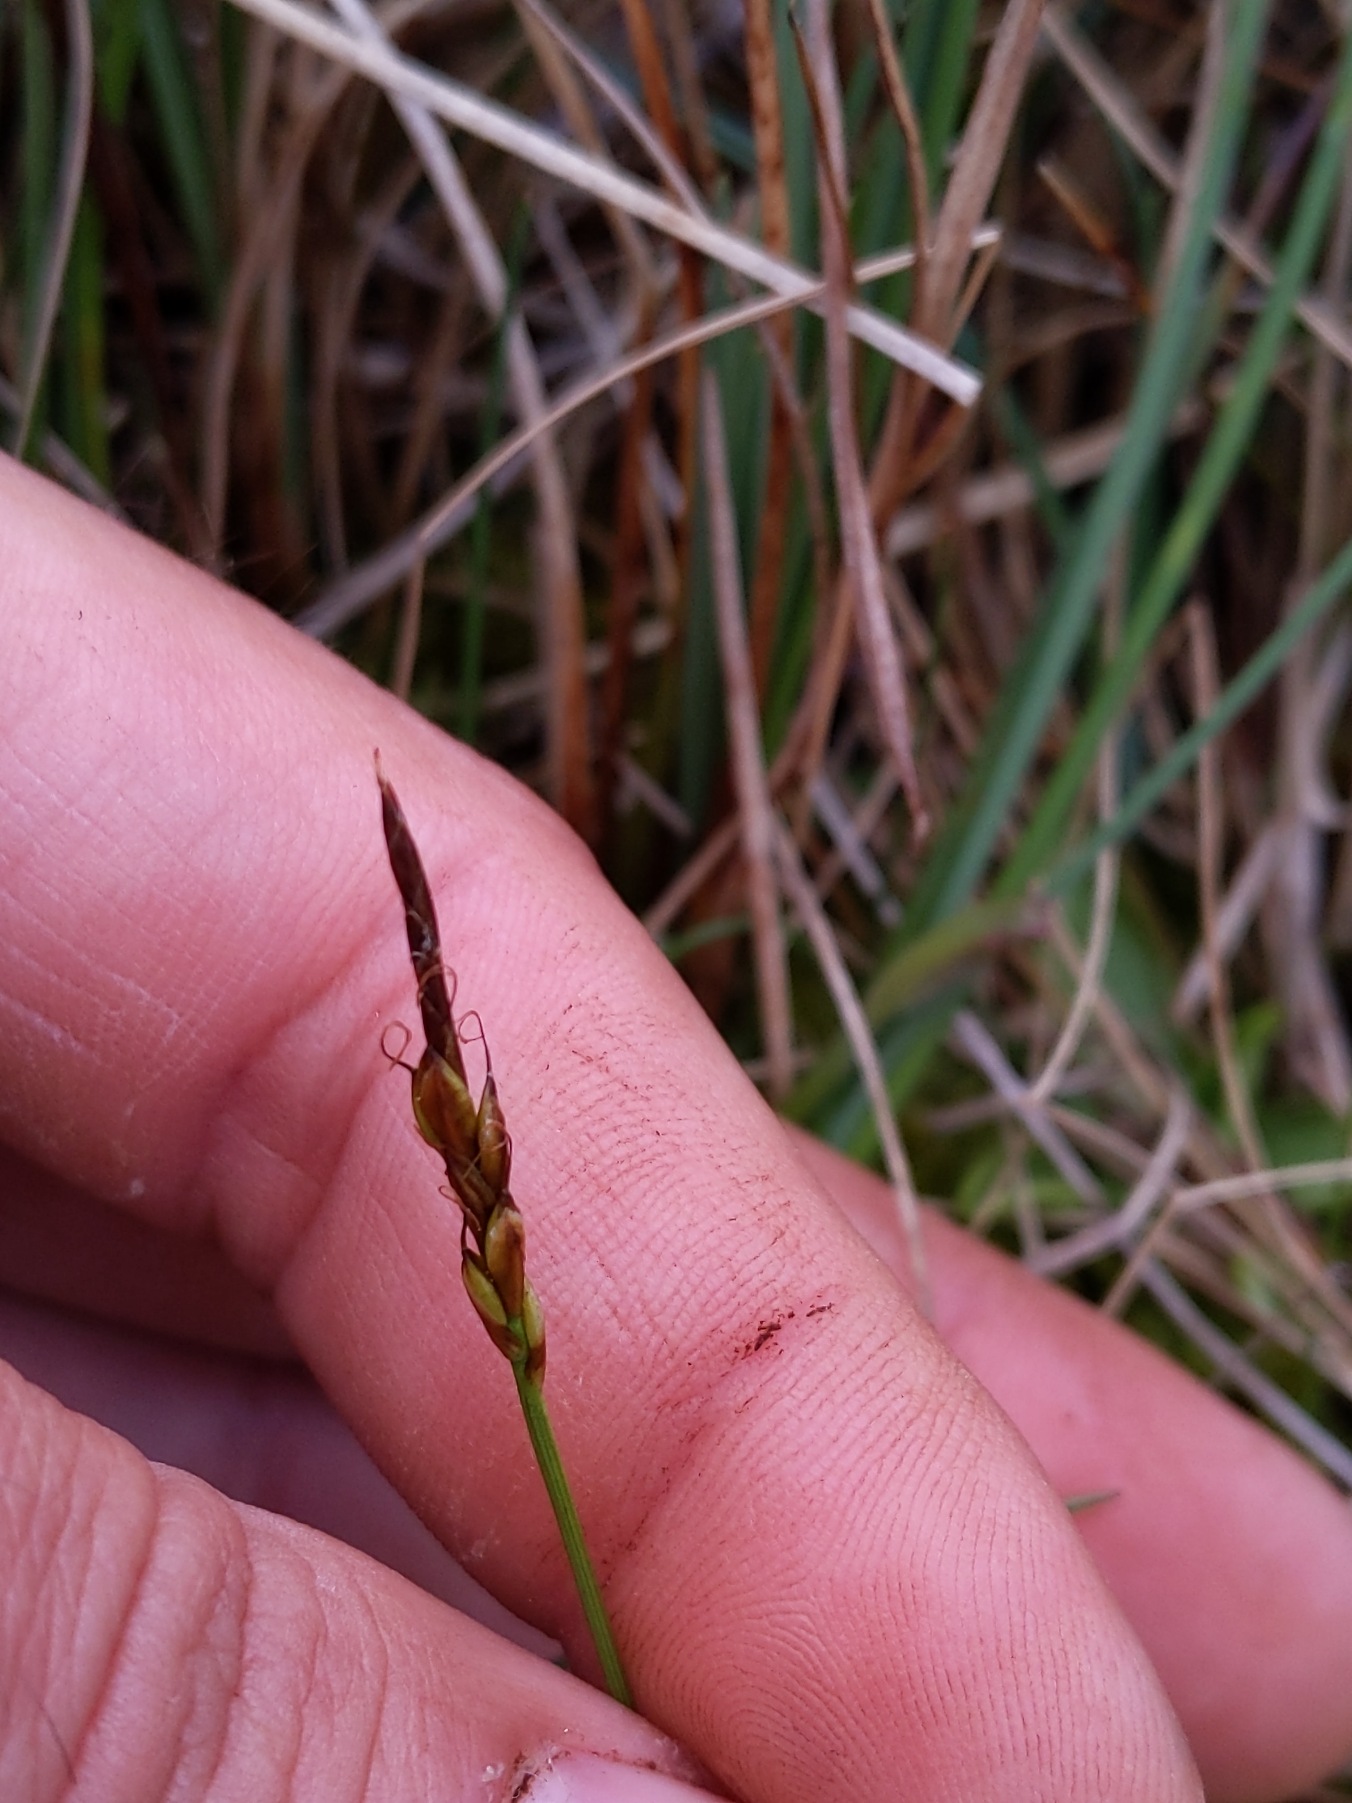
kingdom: Plantae
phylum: Tracheophyta
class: Liliopsida
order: Poales
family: Cyperaceae
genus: Carex
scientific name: Carex pulicaris
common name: Loppe-star
